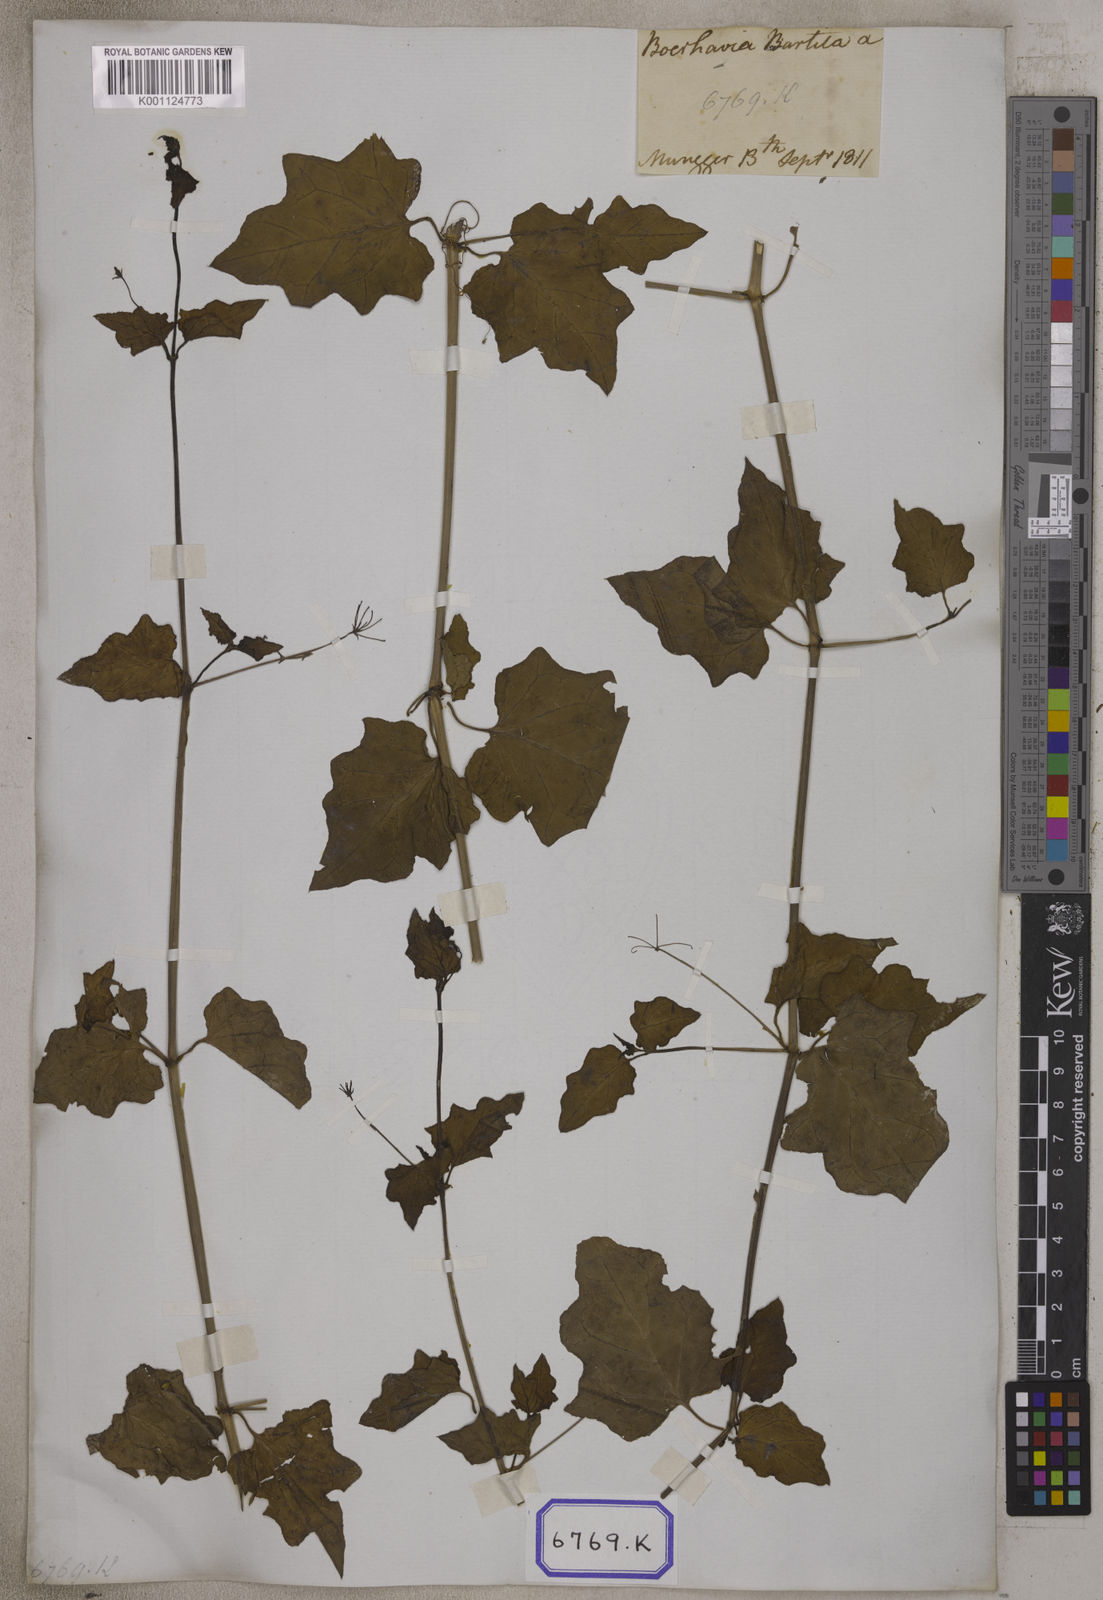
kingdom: Plantae
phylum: Tracheophyta
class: Magnoliopsida
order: Caryophyllales
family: Nyctaginaceae
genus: Commicarpus
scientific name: Commicarpus chinensis
